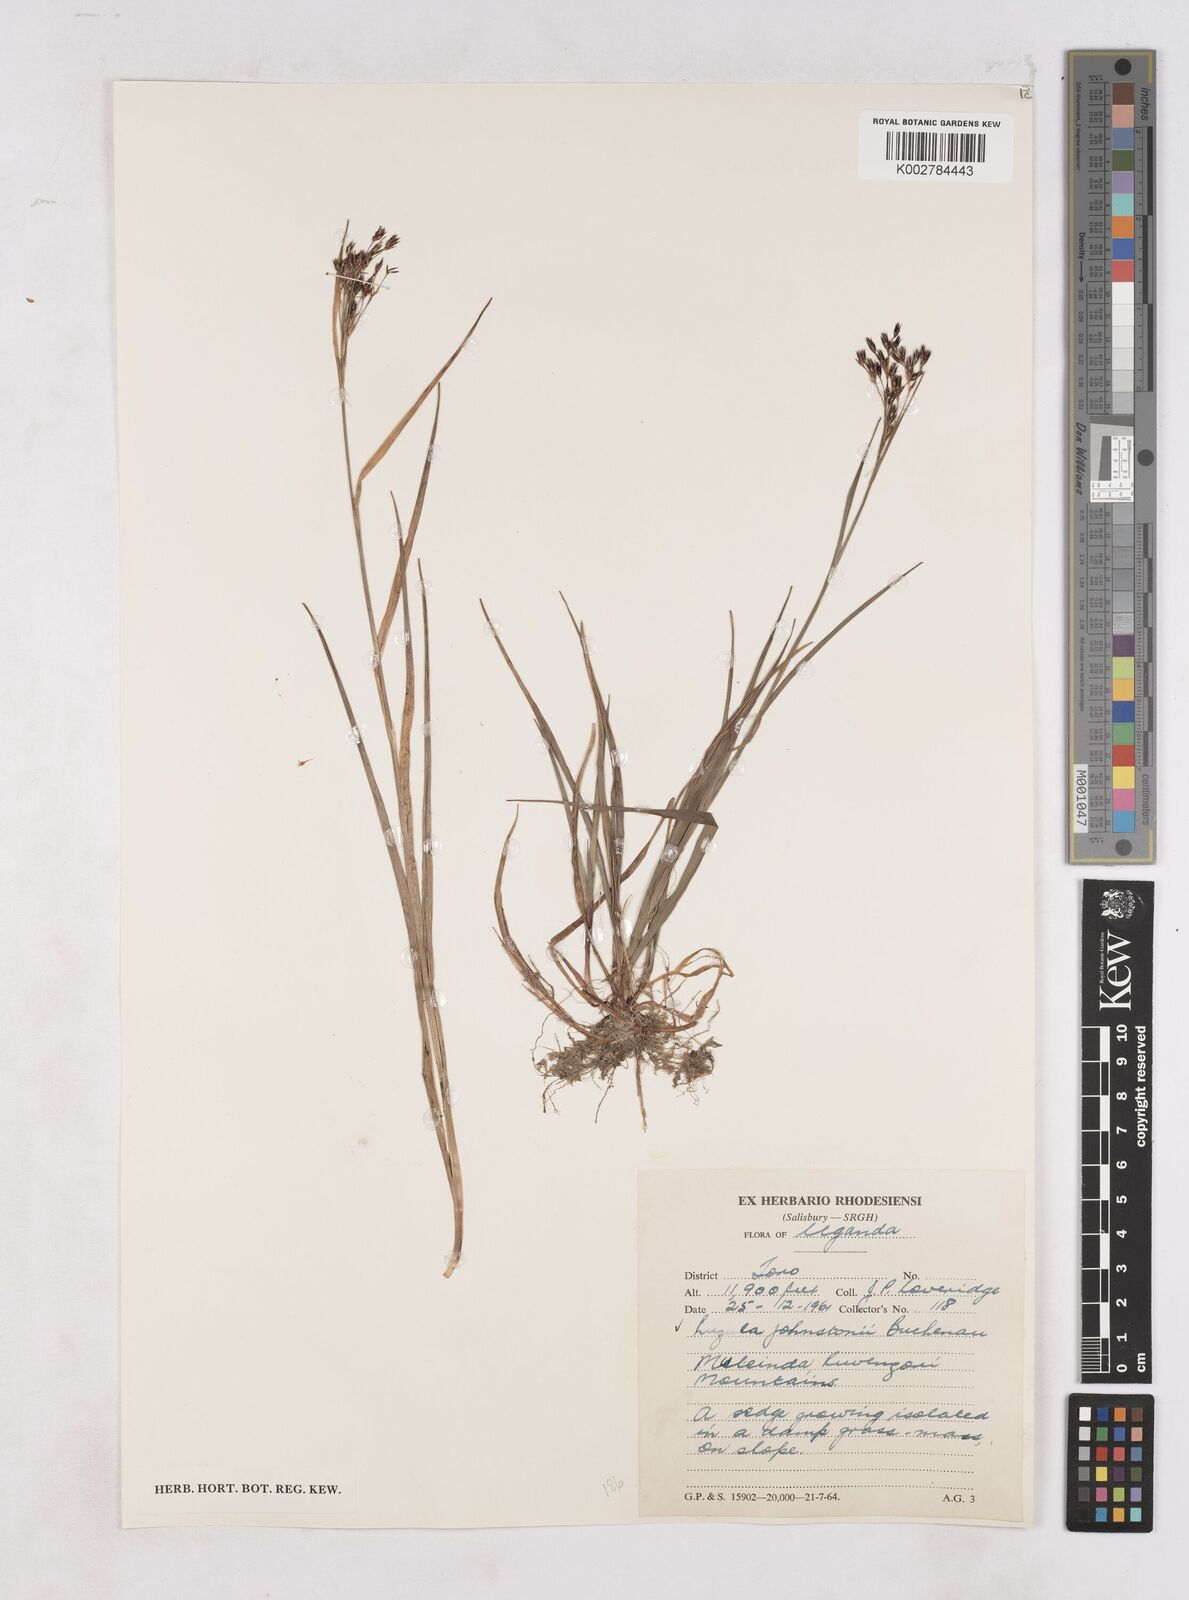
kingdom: Plantae
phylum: Tracheophyta
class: Liliopsida
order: Poales
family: Juncaceae
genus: Luzula
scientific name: Luzula johnstonii
